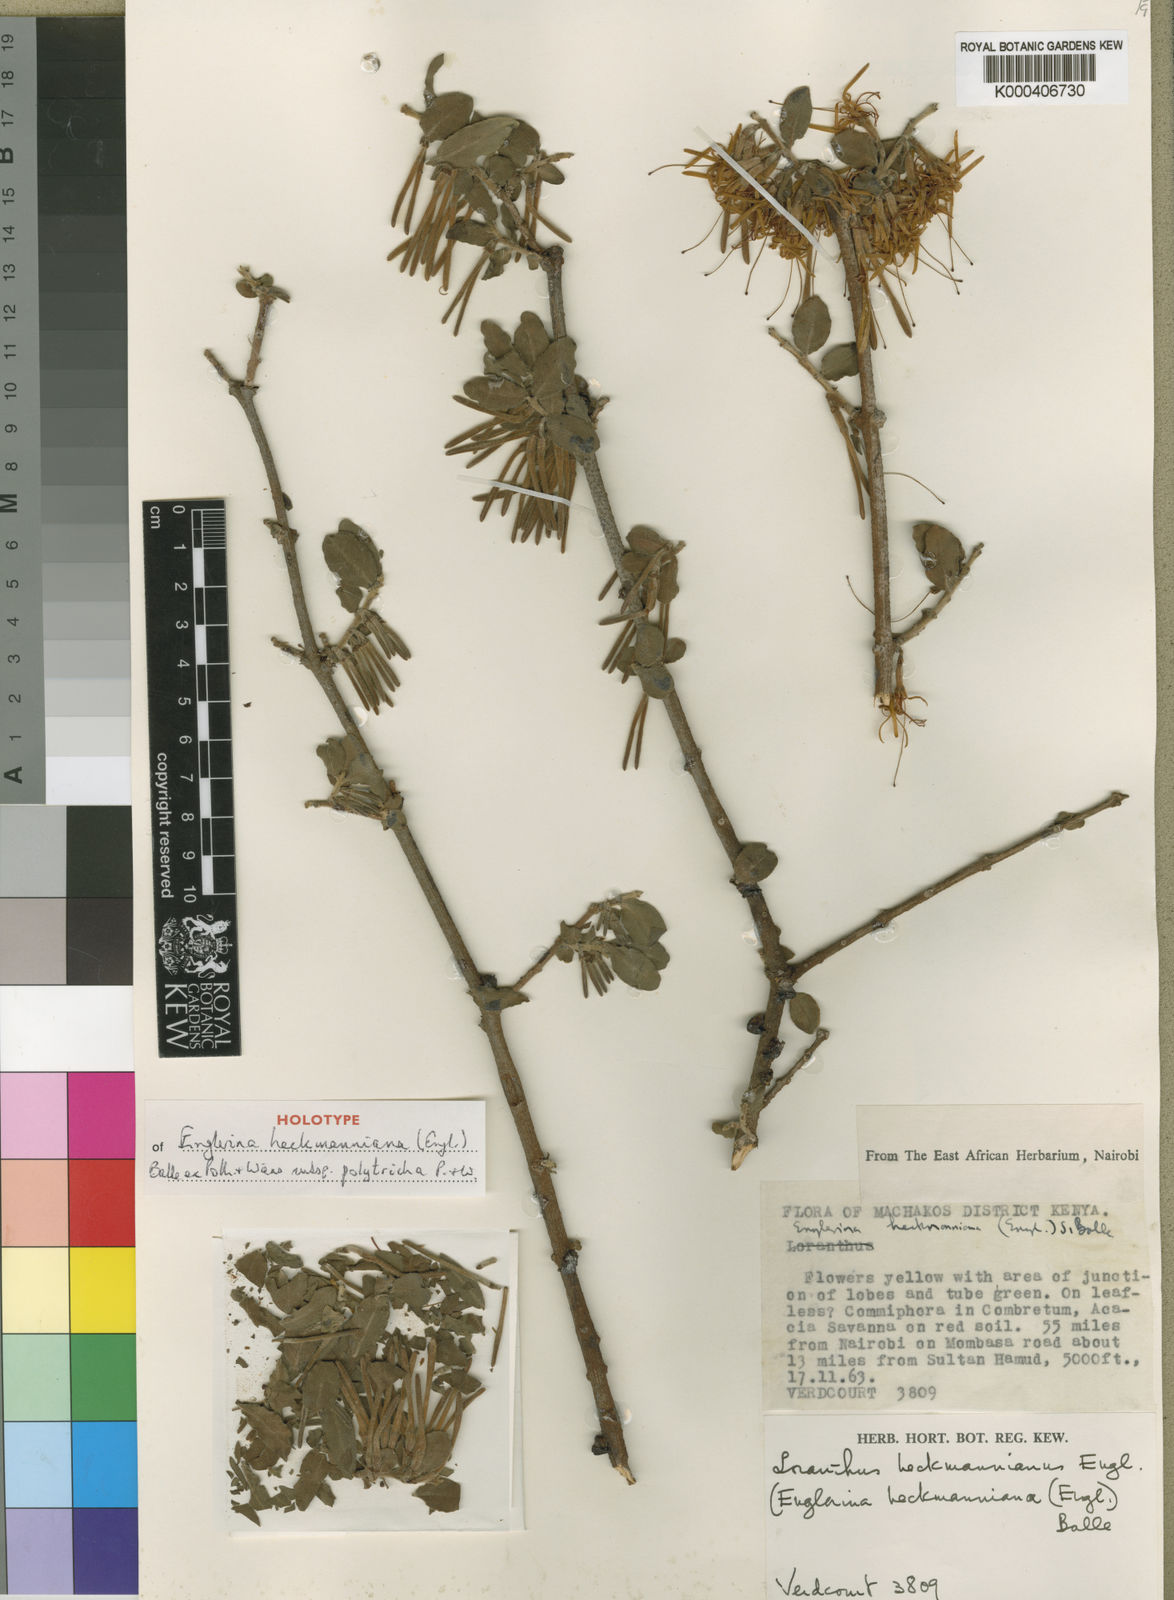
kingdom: Plantae
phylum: Tracheophyta
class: Magnoliopsida
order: Santalales
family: Loranthaceae
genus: Englerina
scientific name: Englerina heckmanniana
